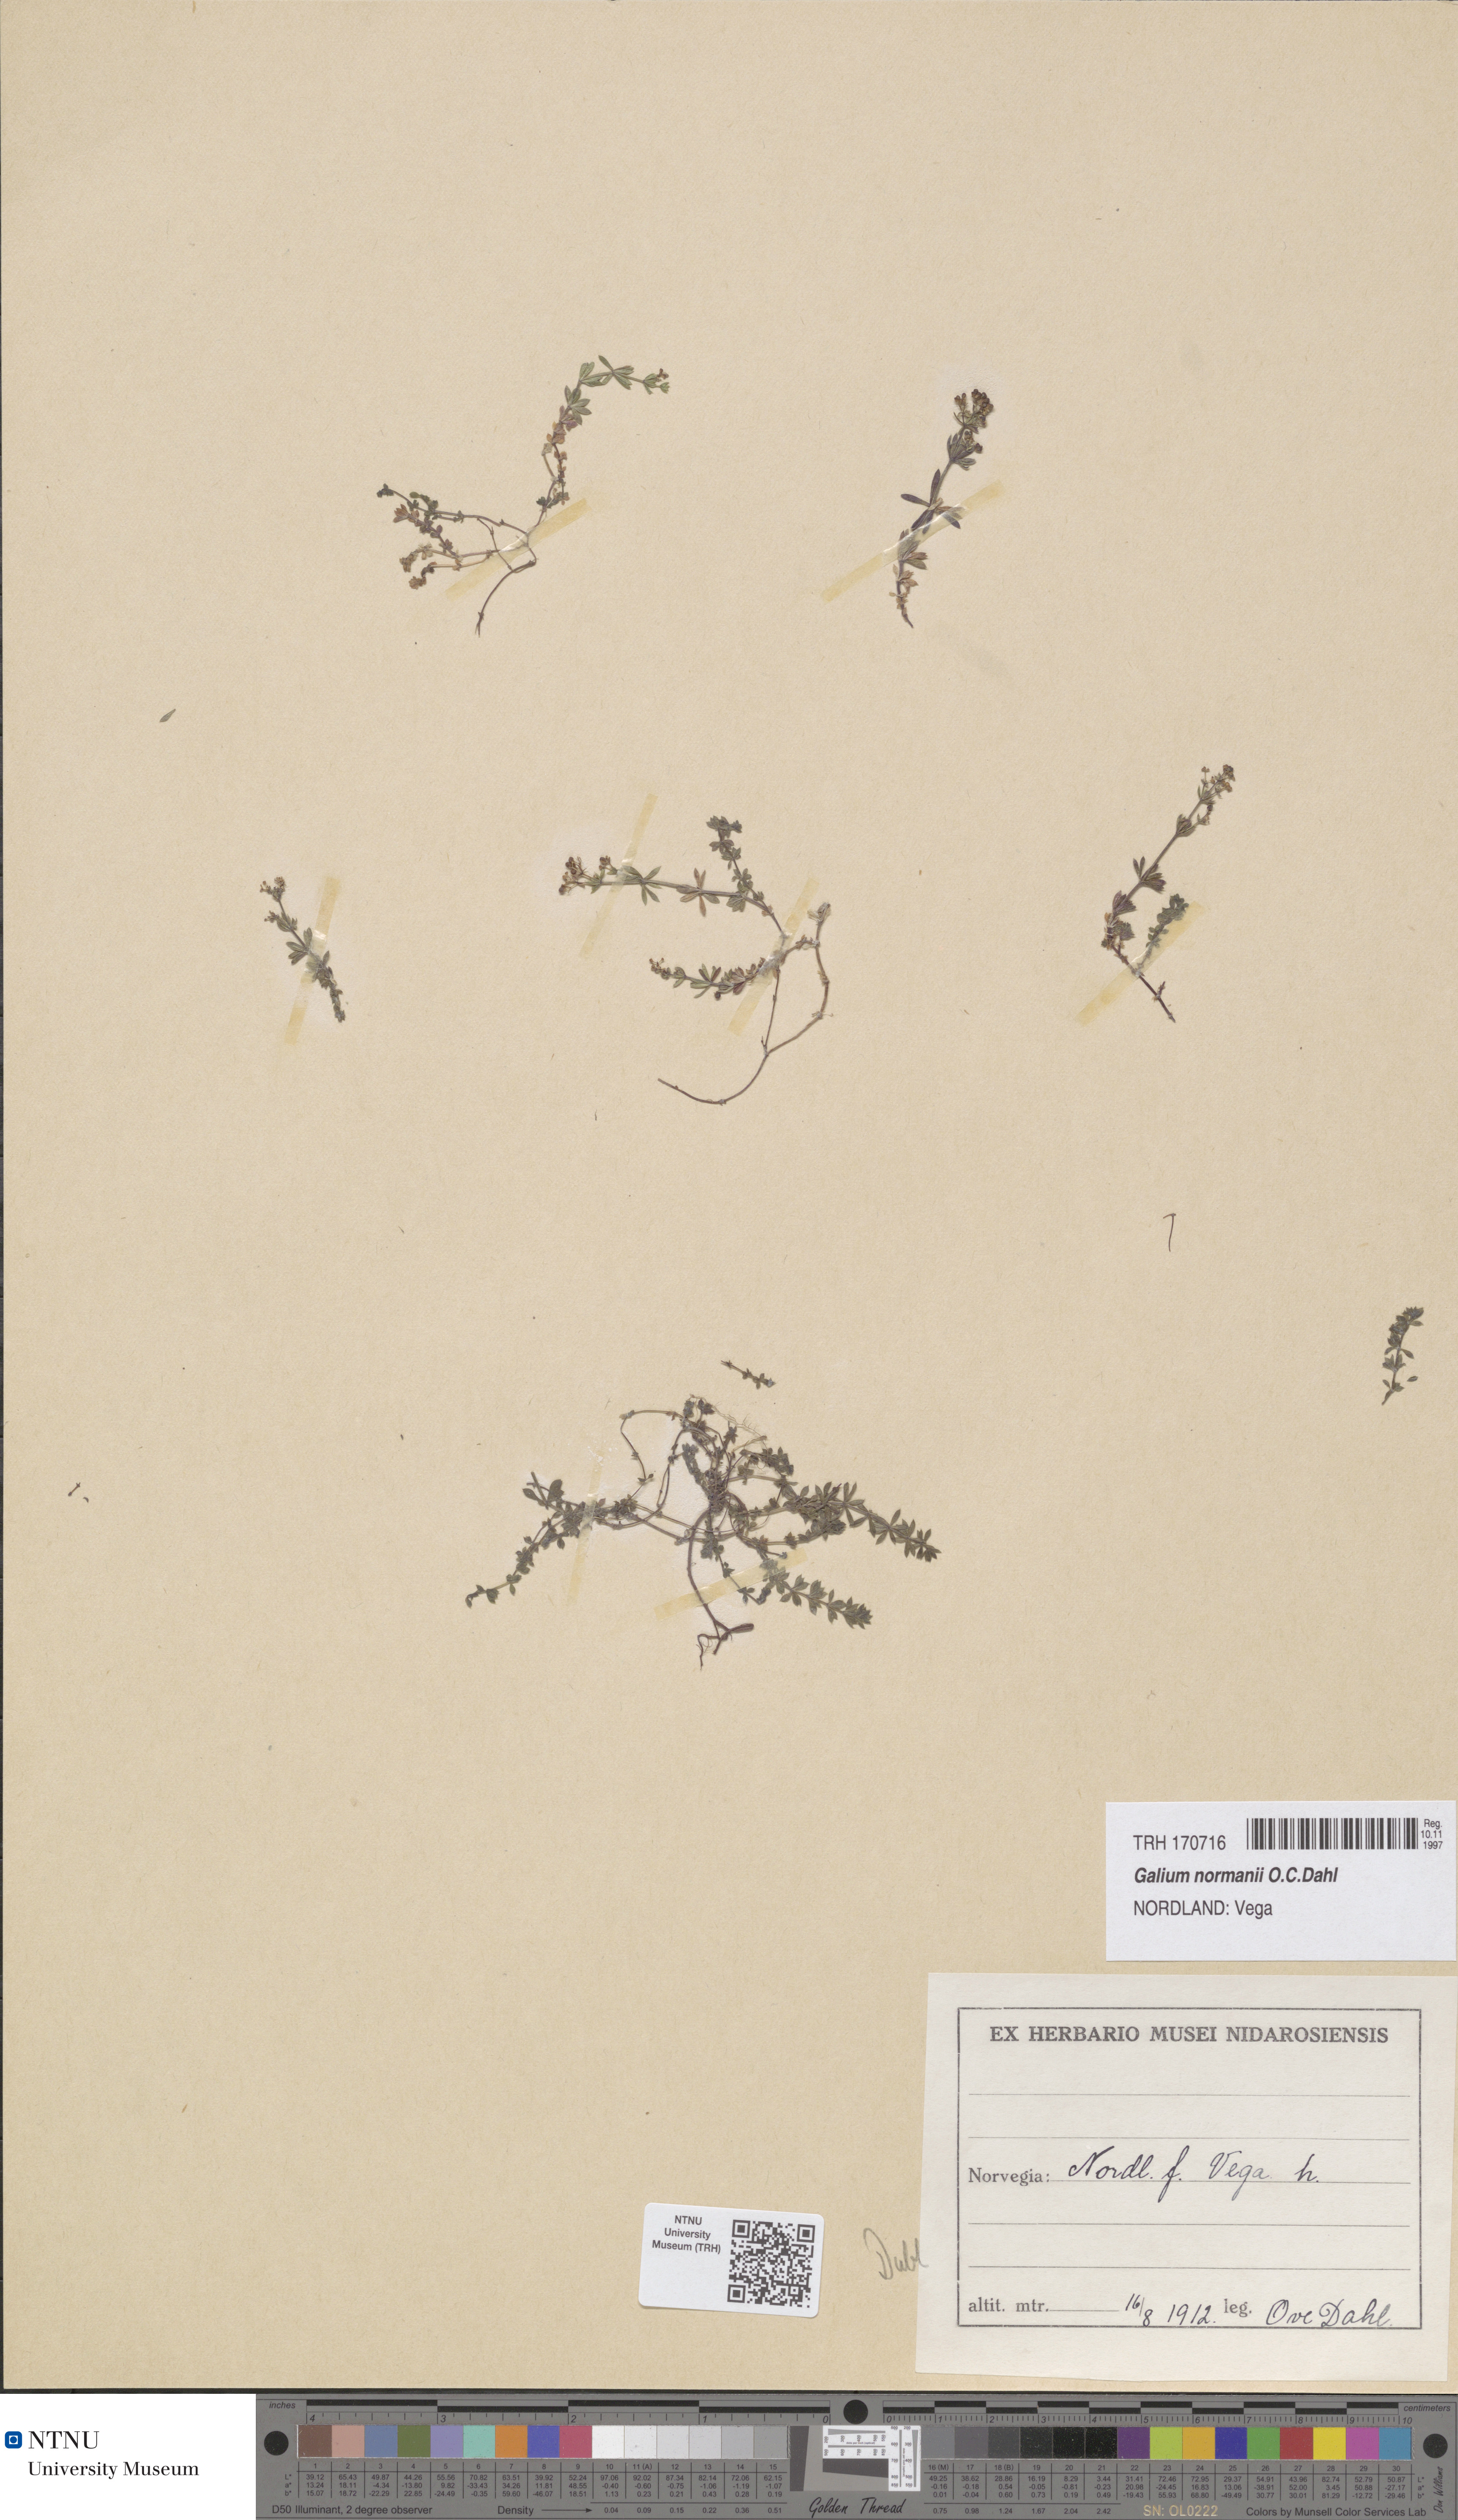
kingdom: Plantae
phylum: Tracheophyta
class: Magnoliopsida
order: Gentianales
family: Rubiaceae
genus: Galium
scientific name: Galium normanii
